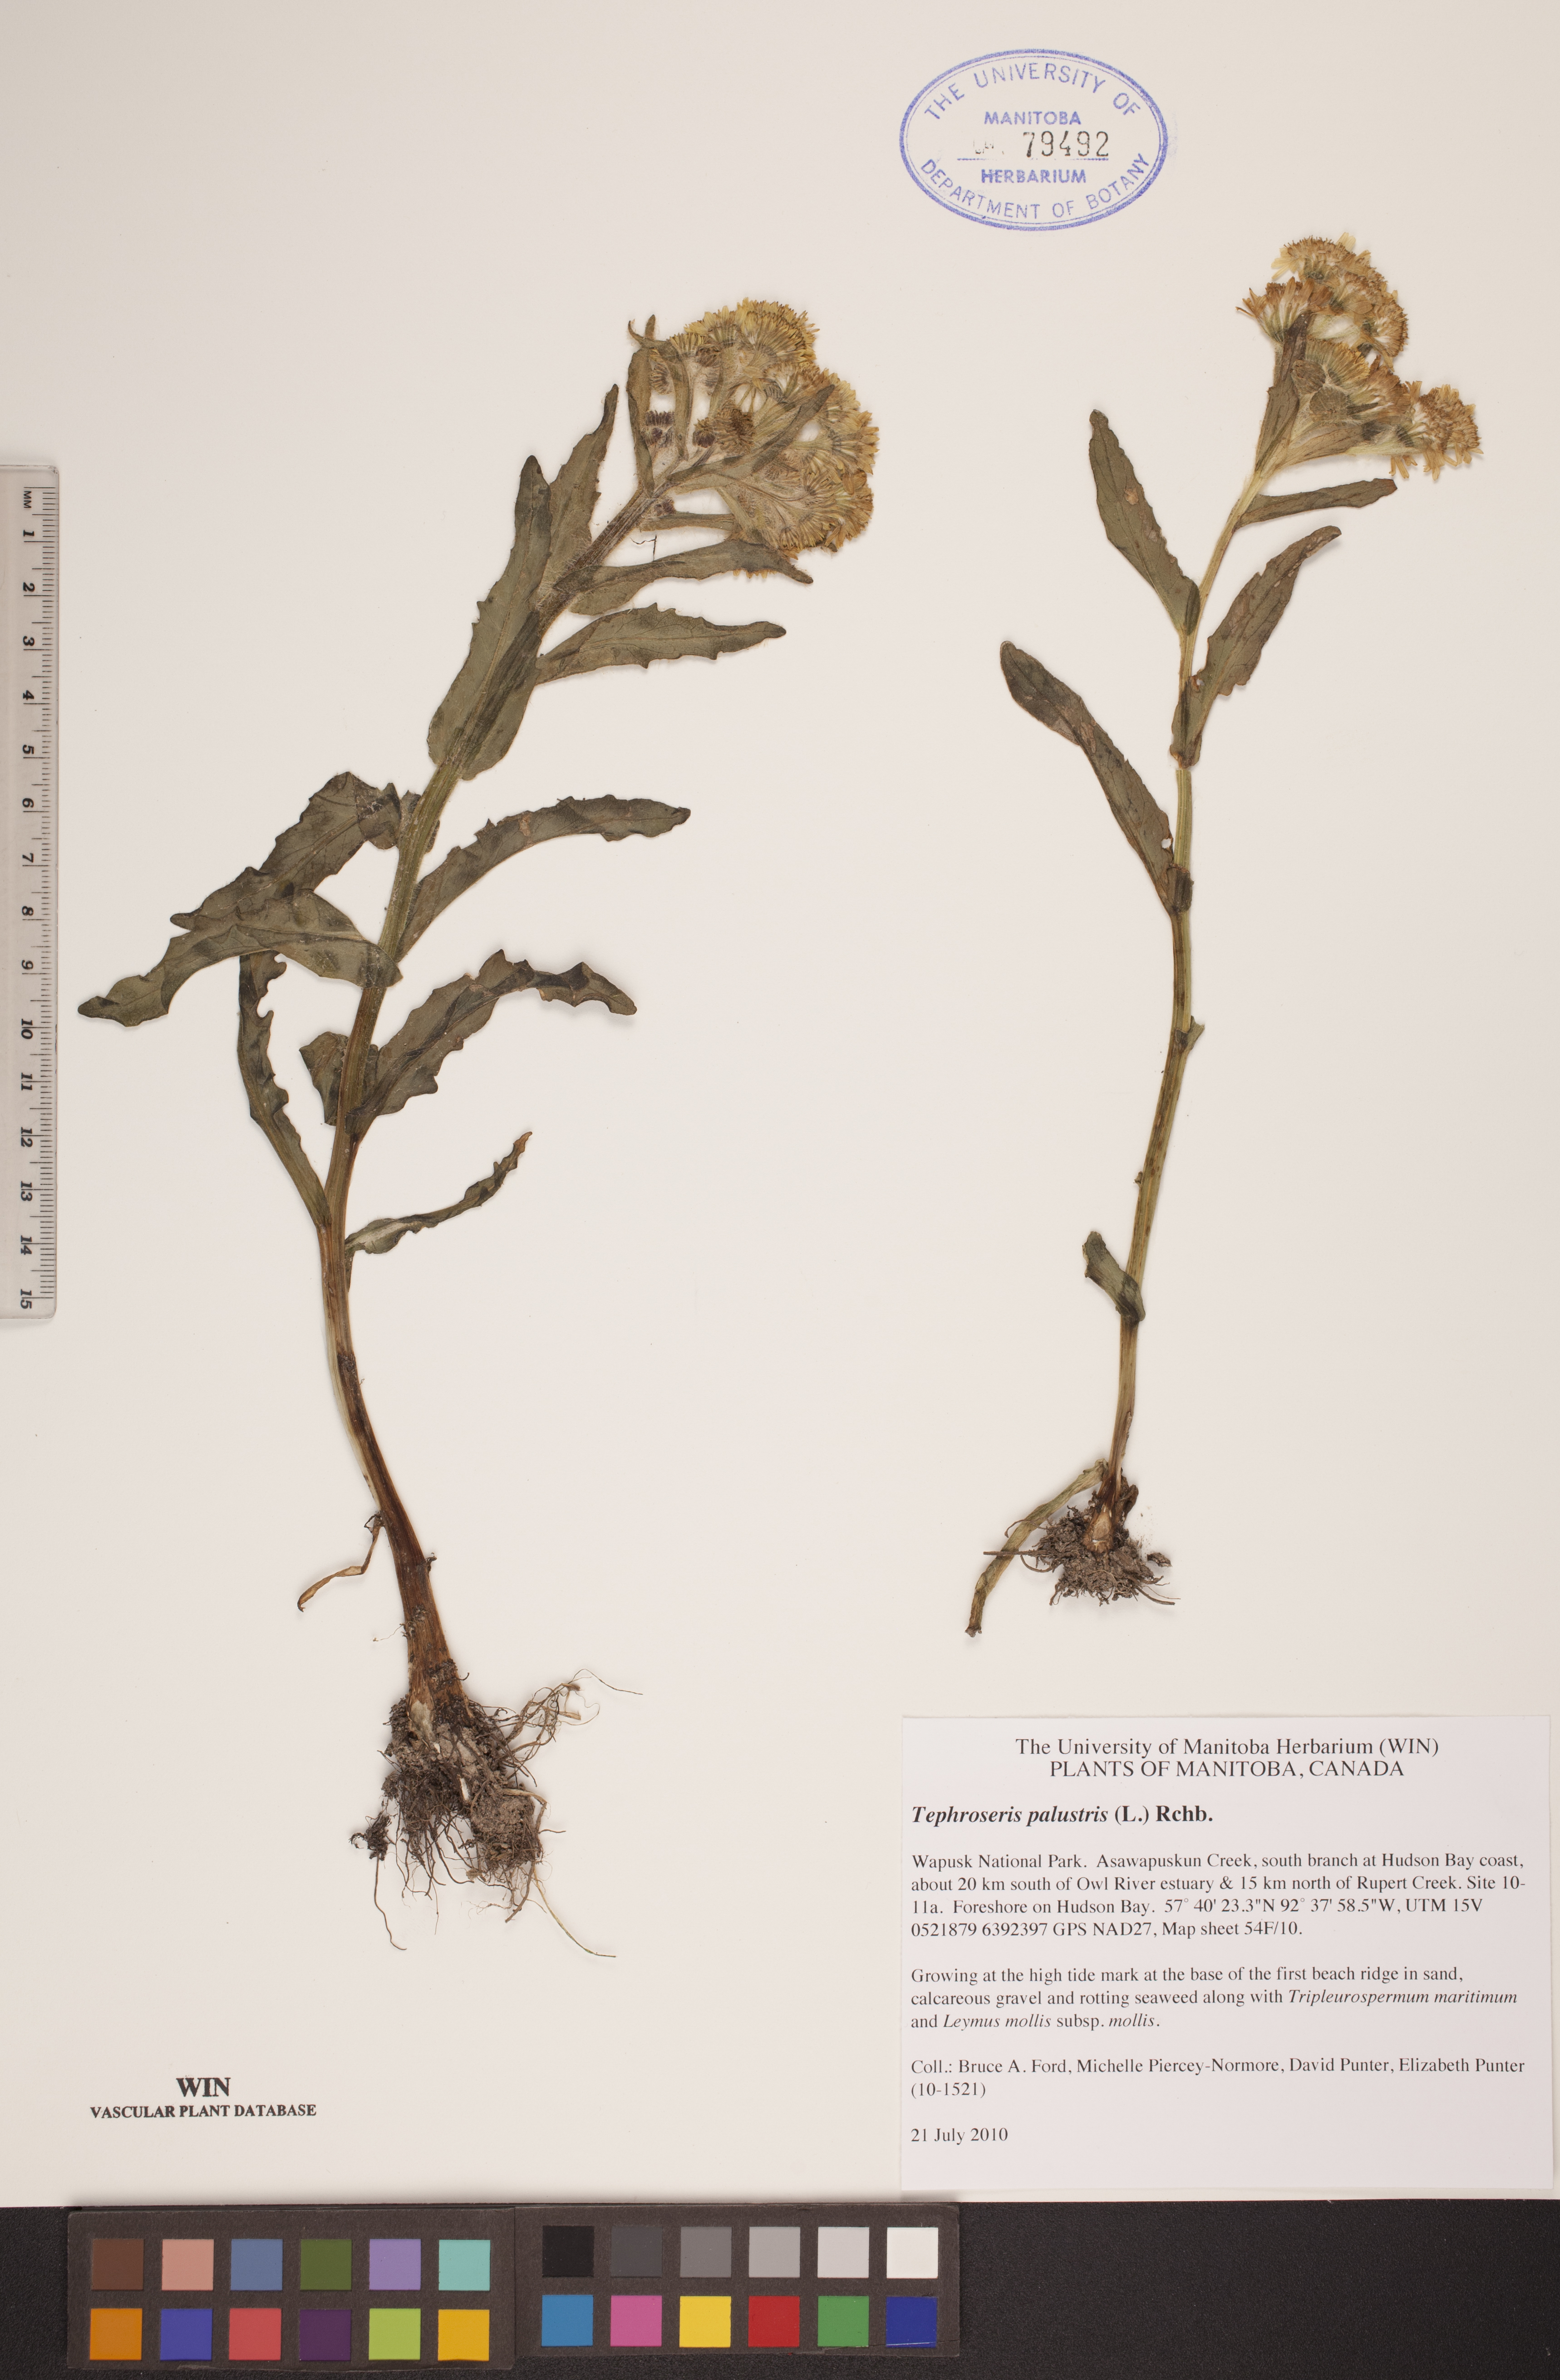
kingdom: Plantae
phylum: Tracheophyta
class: Magnoliopsida
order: Asterales
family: Asteraceae
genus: Tephroseris
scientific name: Tephroseris palustris
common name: Marsh fleawort
